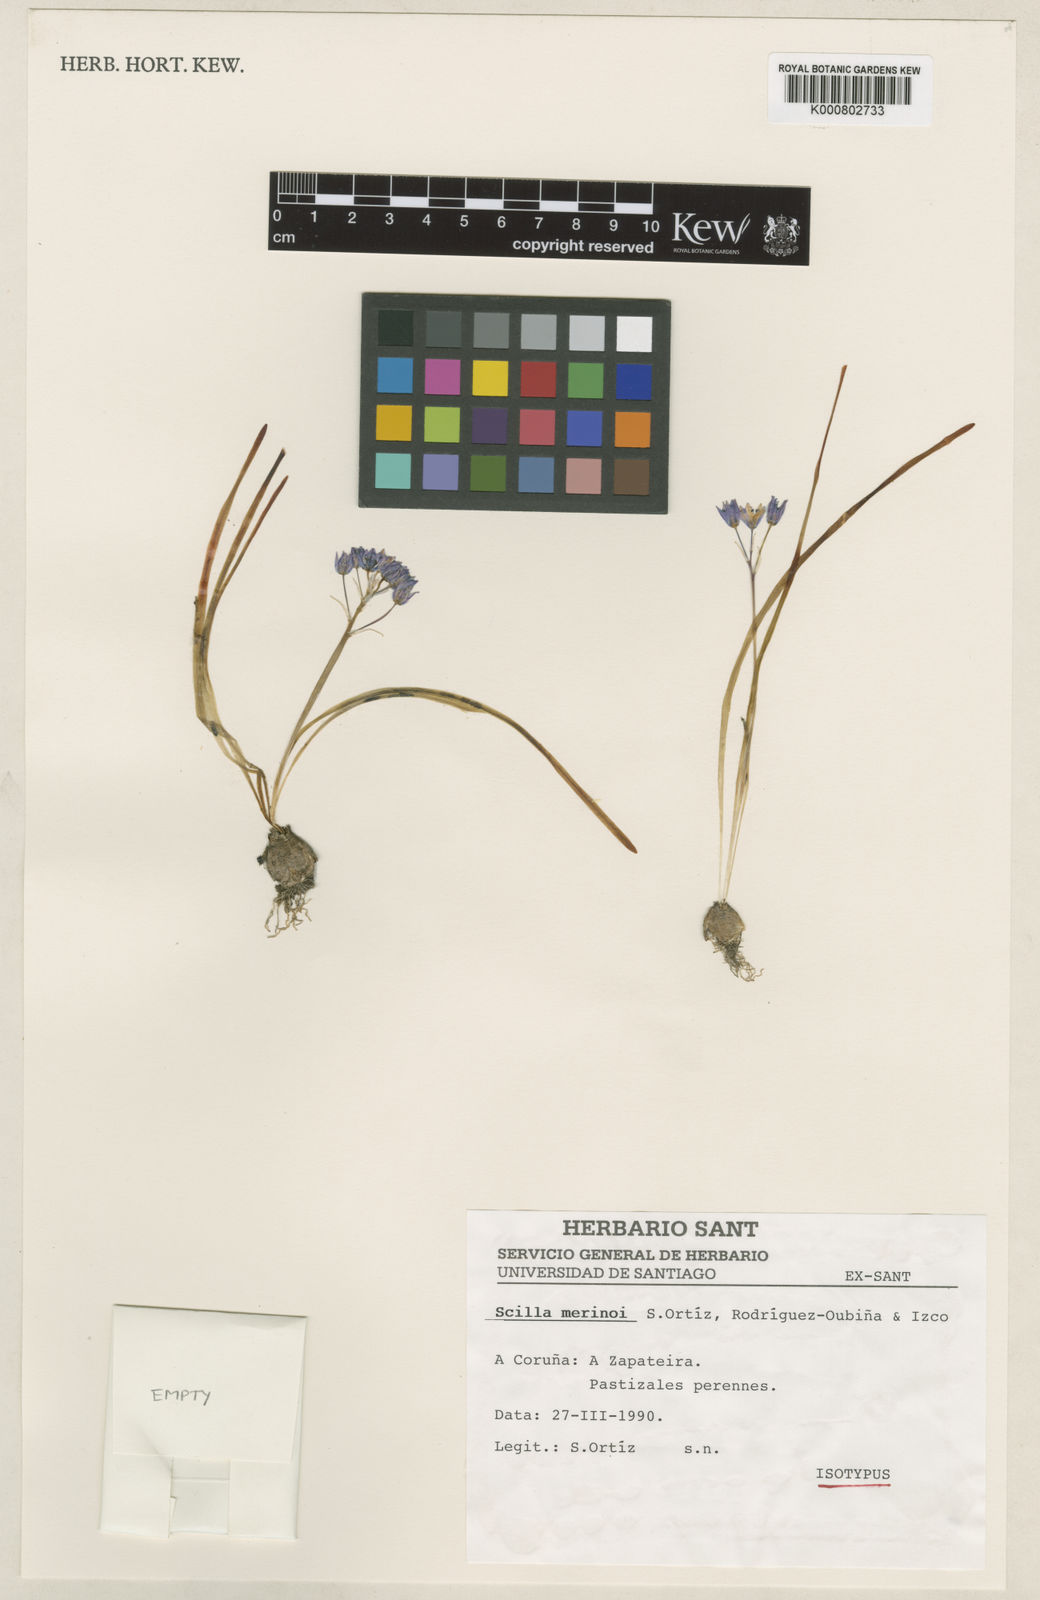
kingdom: Plantae
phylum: Tracheophyta
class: Liliopsida
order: Asparagales
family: Asparagaceae
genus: Scilla
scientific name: Scilla
